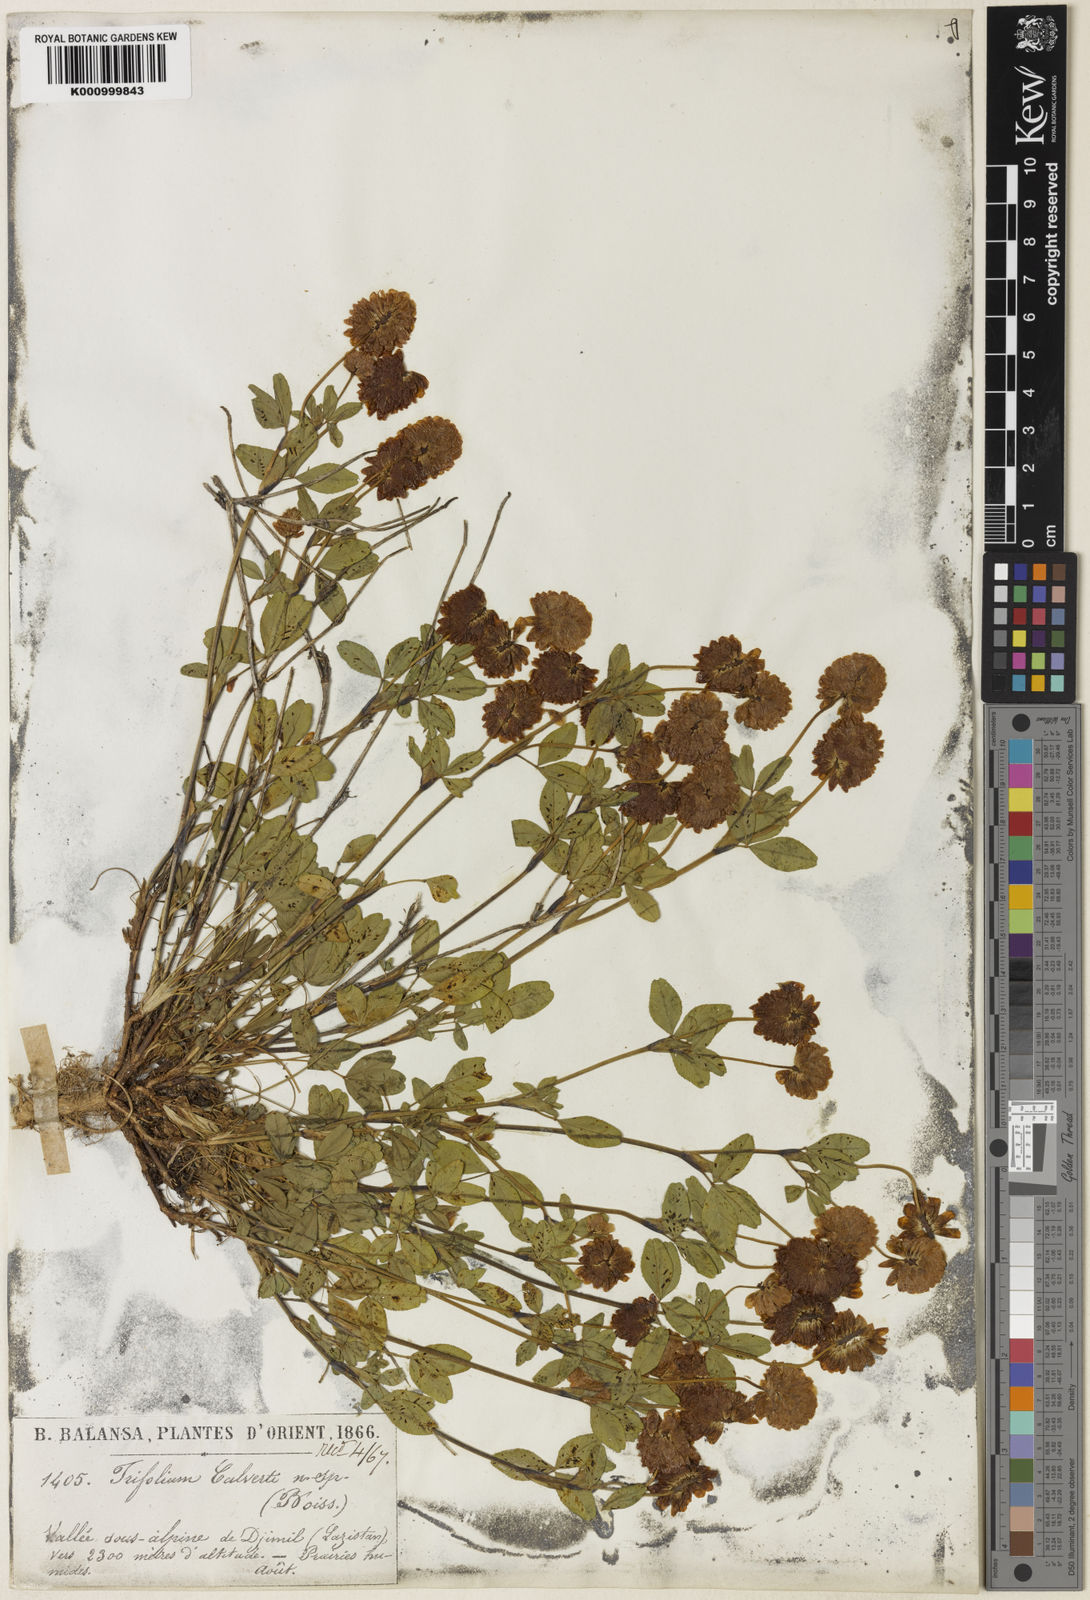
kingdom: Plantae
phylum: Tracheophyta
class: Magnoliopsida
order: Fabales
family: Fabaceae
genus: Trifolium
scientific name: Trifolium
